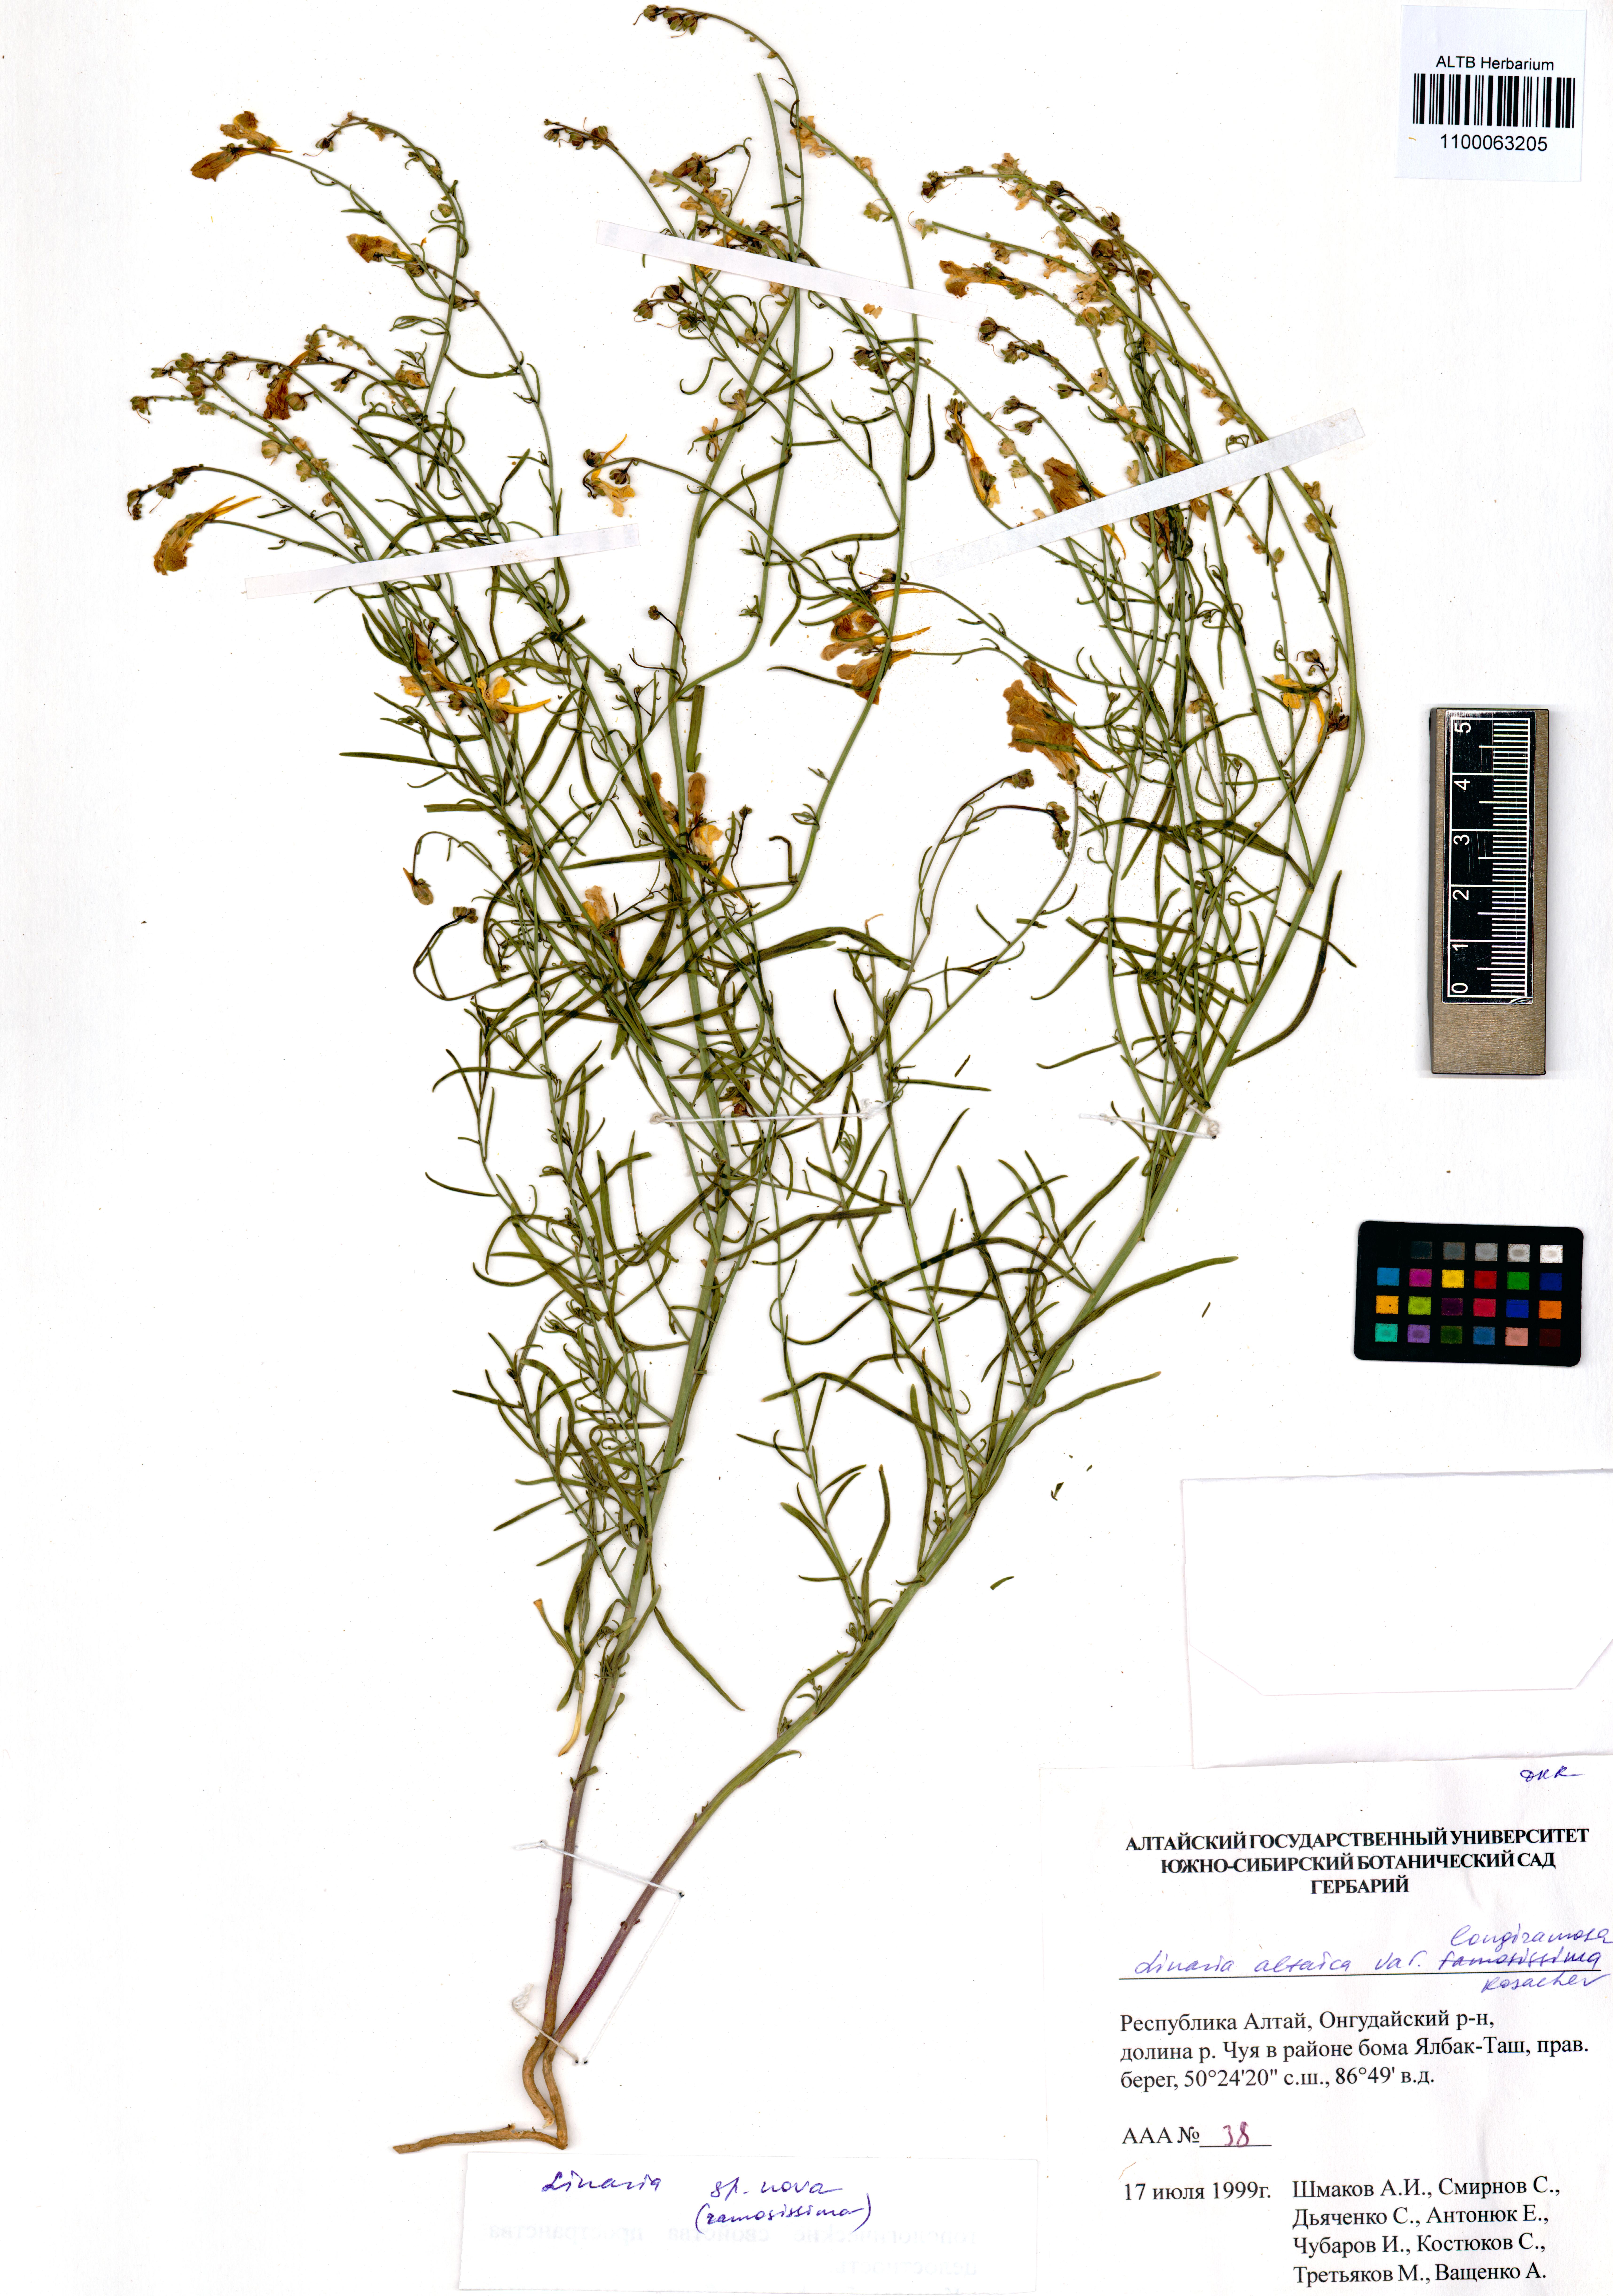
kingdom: Plantae
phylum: Tracheophyta
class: Magnoliopsida
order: Lamiales
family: Plantaginaceae
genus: Linaria
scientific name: Linaria altaica
